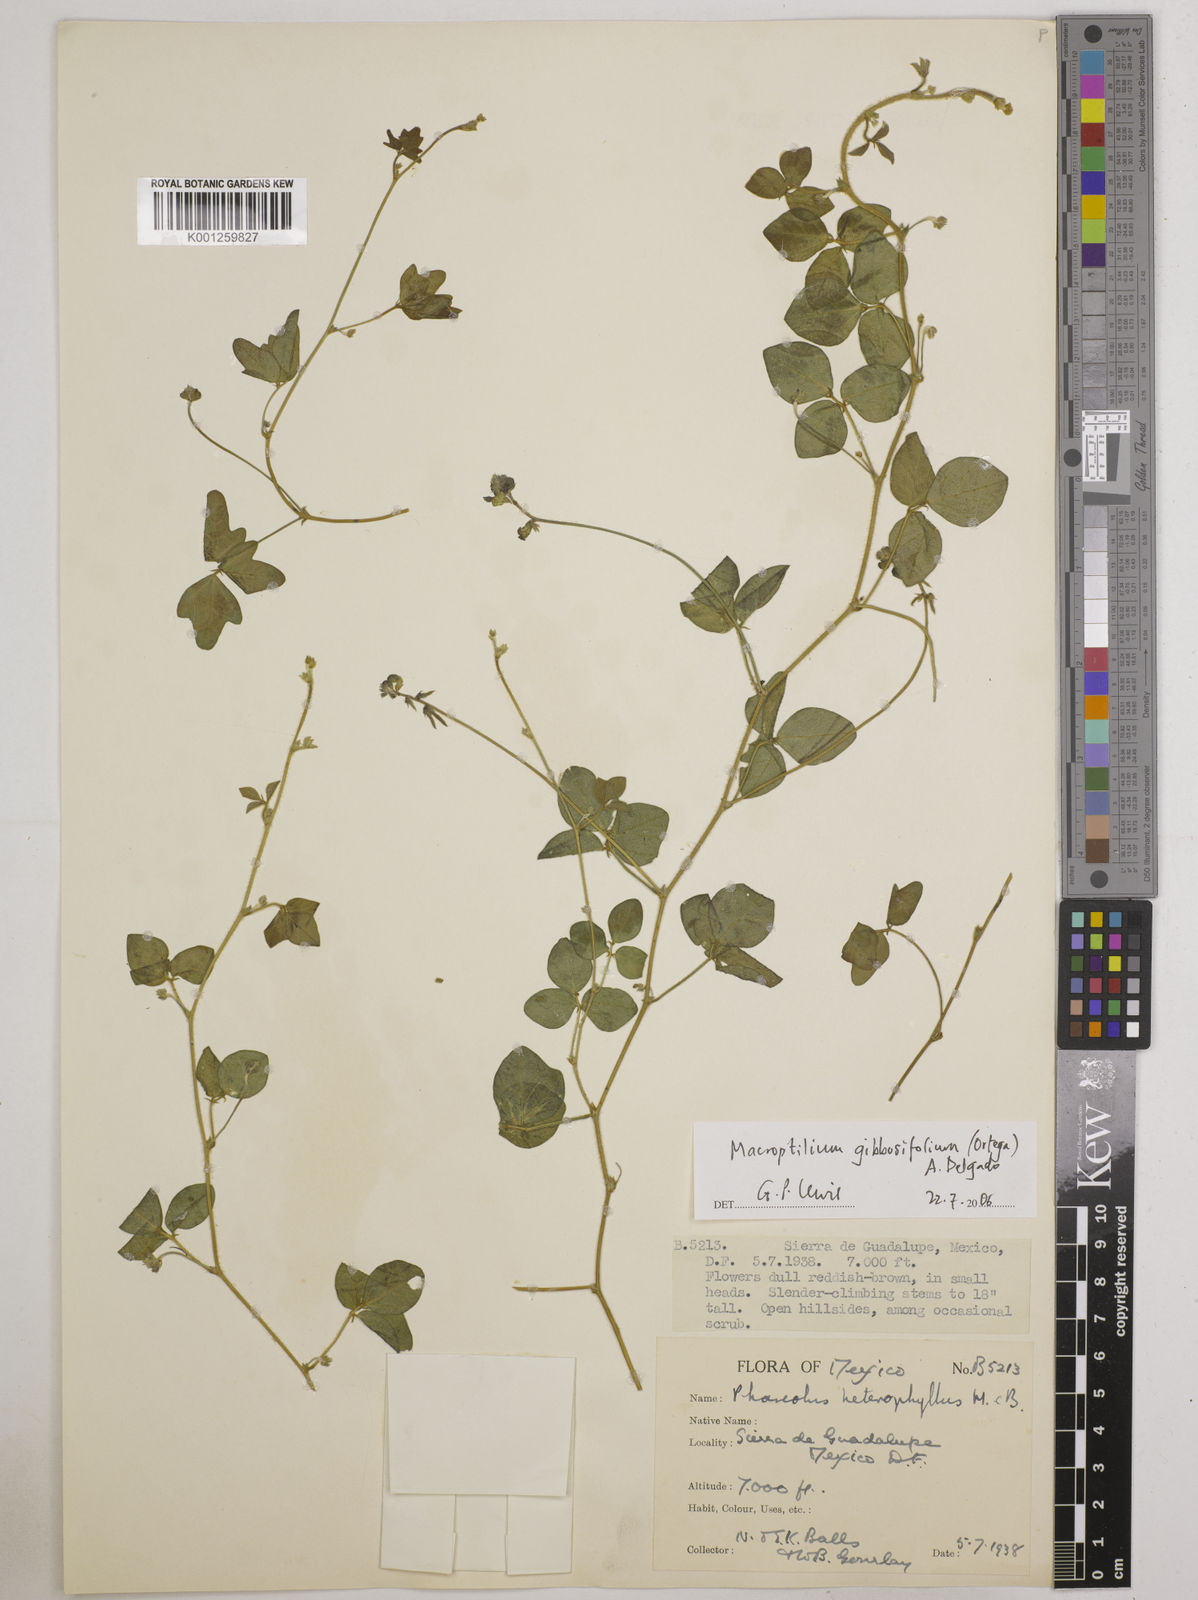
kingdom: Plantae
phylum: Tracheophyta
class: Magnoliopsida
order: Fabales
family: Fabaceae
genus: Macroptilium
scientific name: Macroptilium gibbosifolium
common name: Variableleaf bushbean
